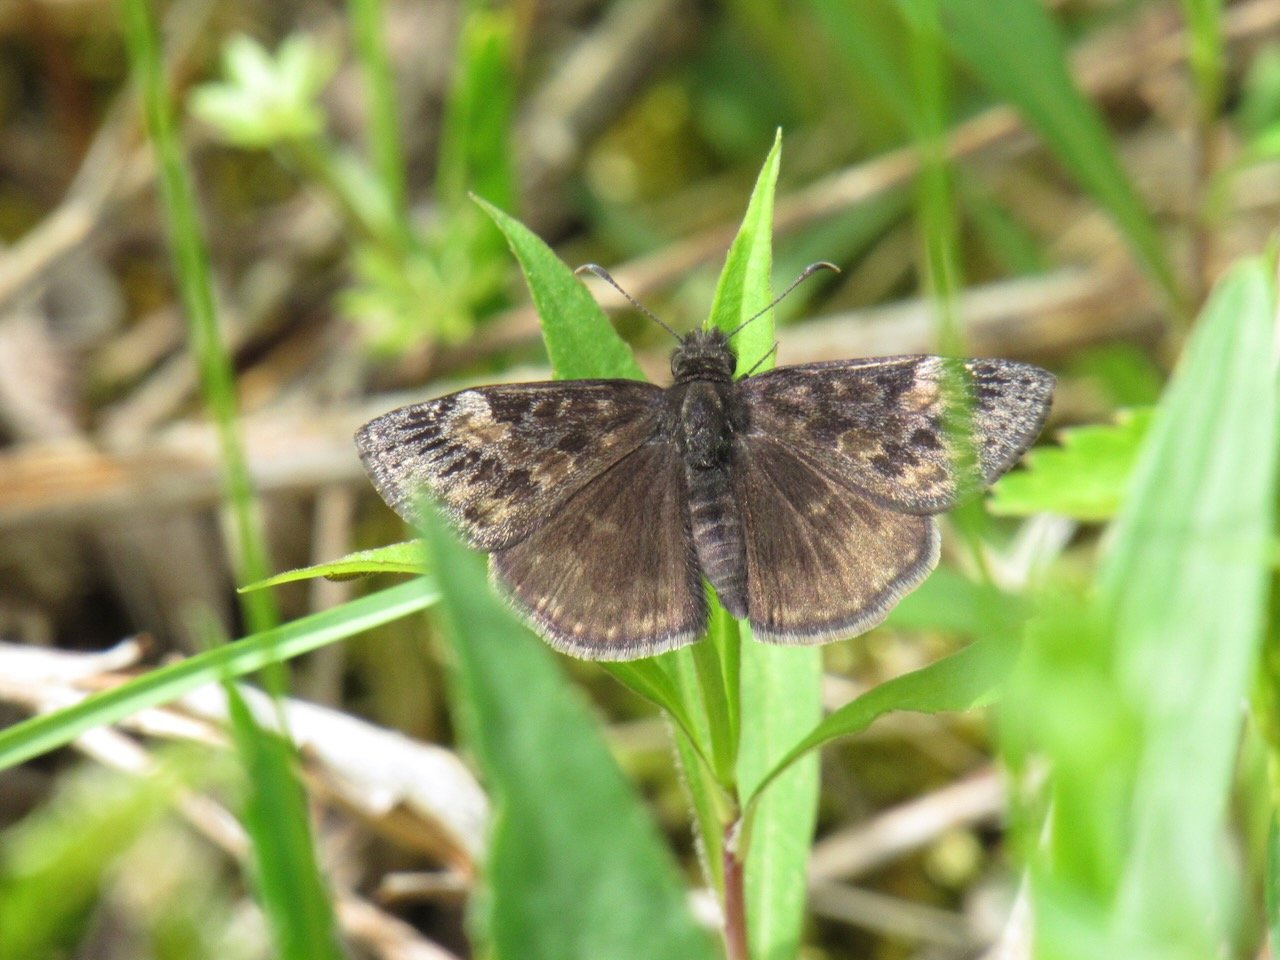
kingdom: Animalia
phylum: Arthropoda
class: Insecta
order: Lepidoptera
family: Hesperiidae
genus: Gesta
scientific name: Gesta
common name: Wild Indigo Duskywing
